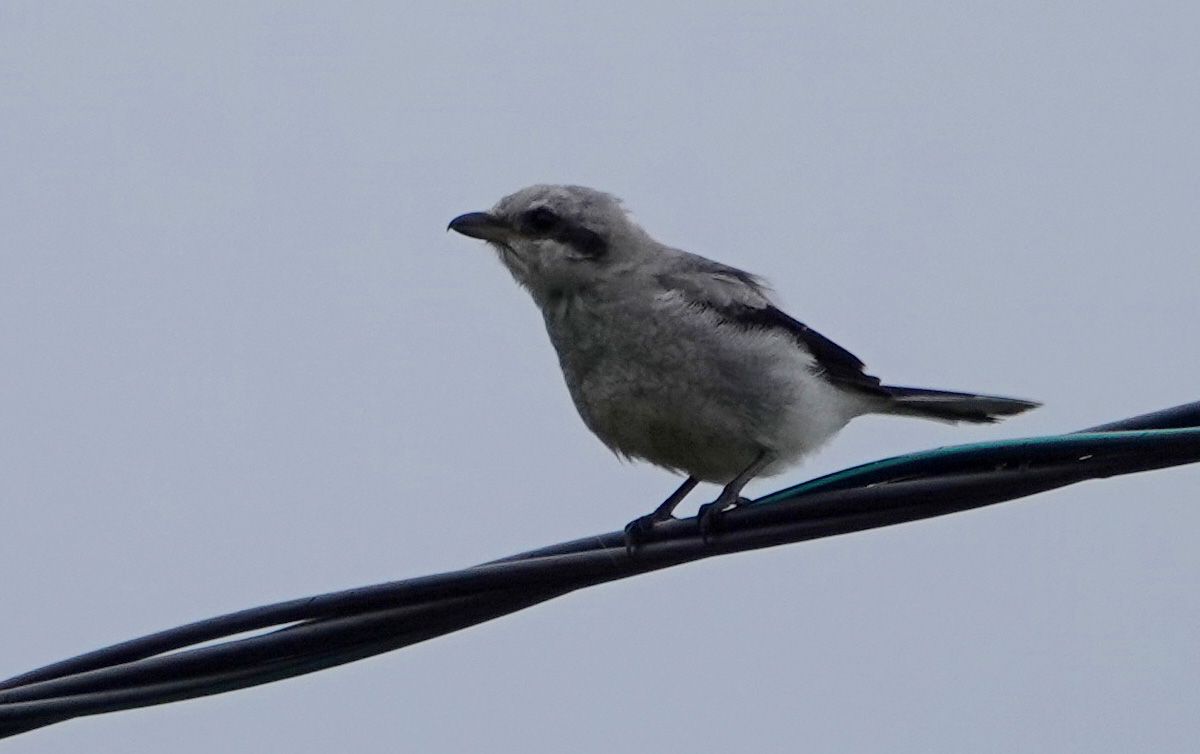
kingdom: Animalia
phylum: Chordata
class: Aves
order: Passeriformes
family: Laniidae
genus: Lanius
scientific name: Lanius excubitor
